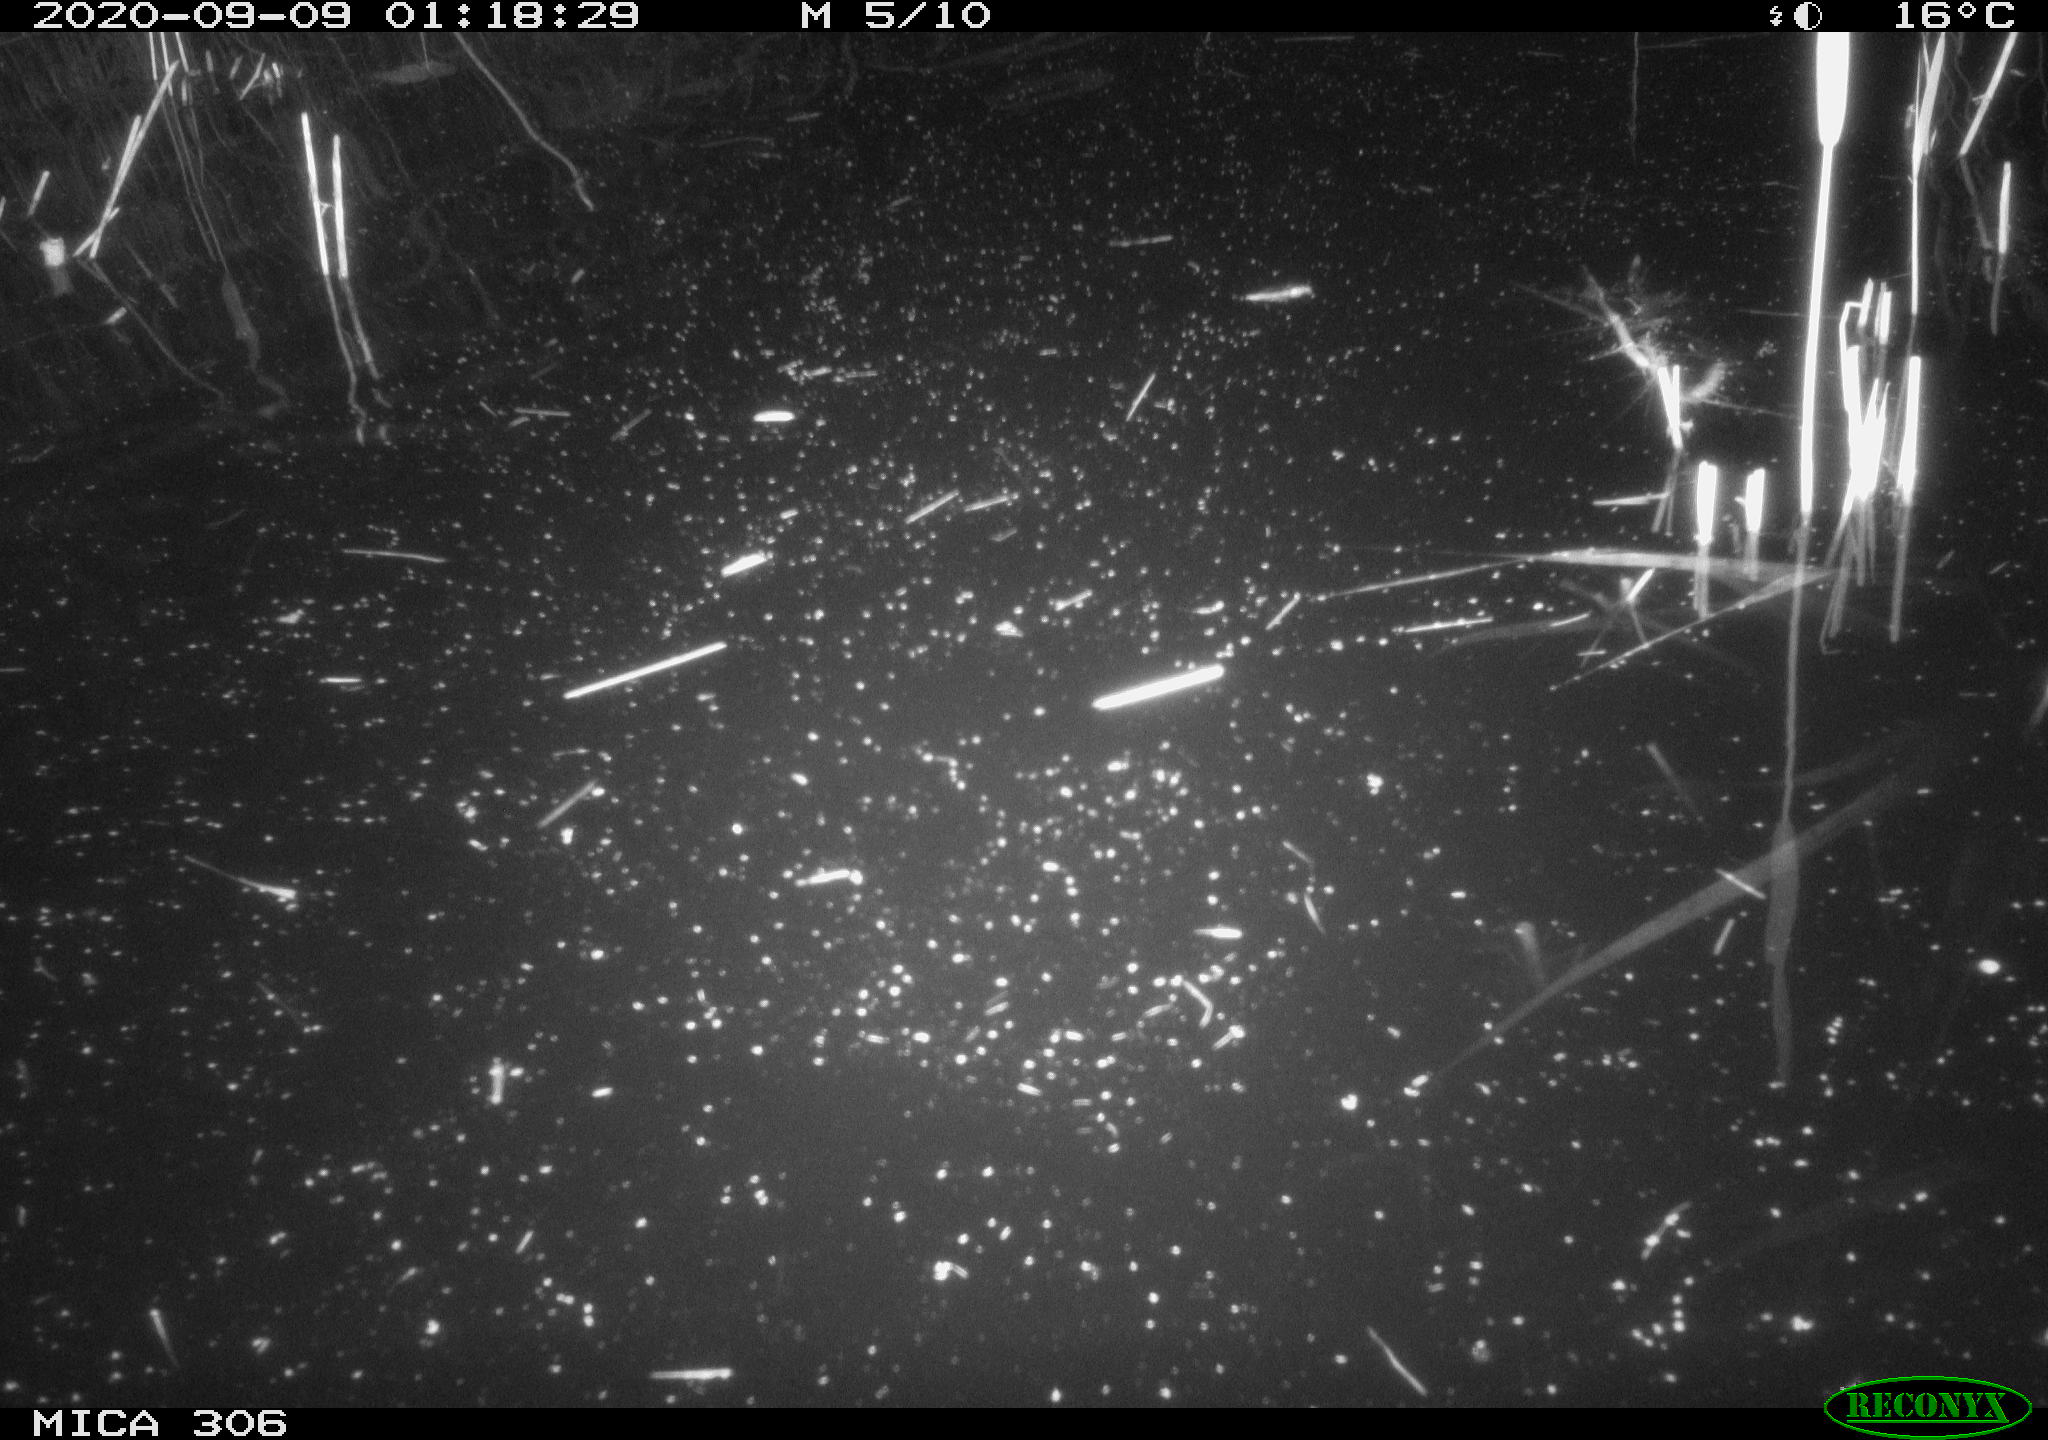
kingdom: Animalia
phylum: Chordata
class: Mammalia
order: Rodentia
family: Muridae
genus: Rattus
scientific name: Rattus norvegicus
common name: Brown rat
